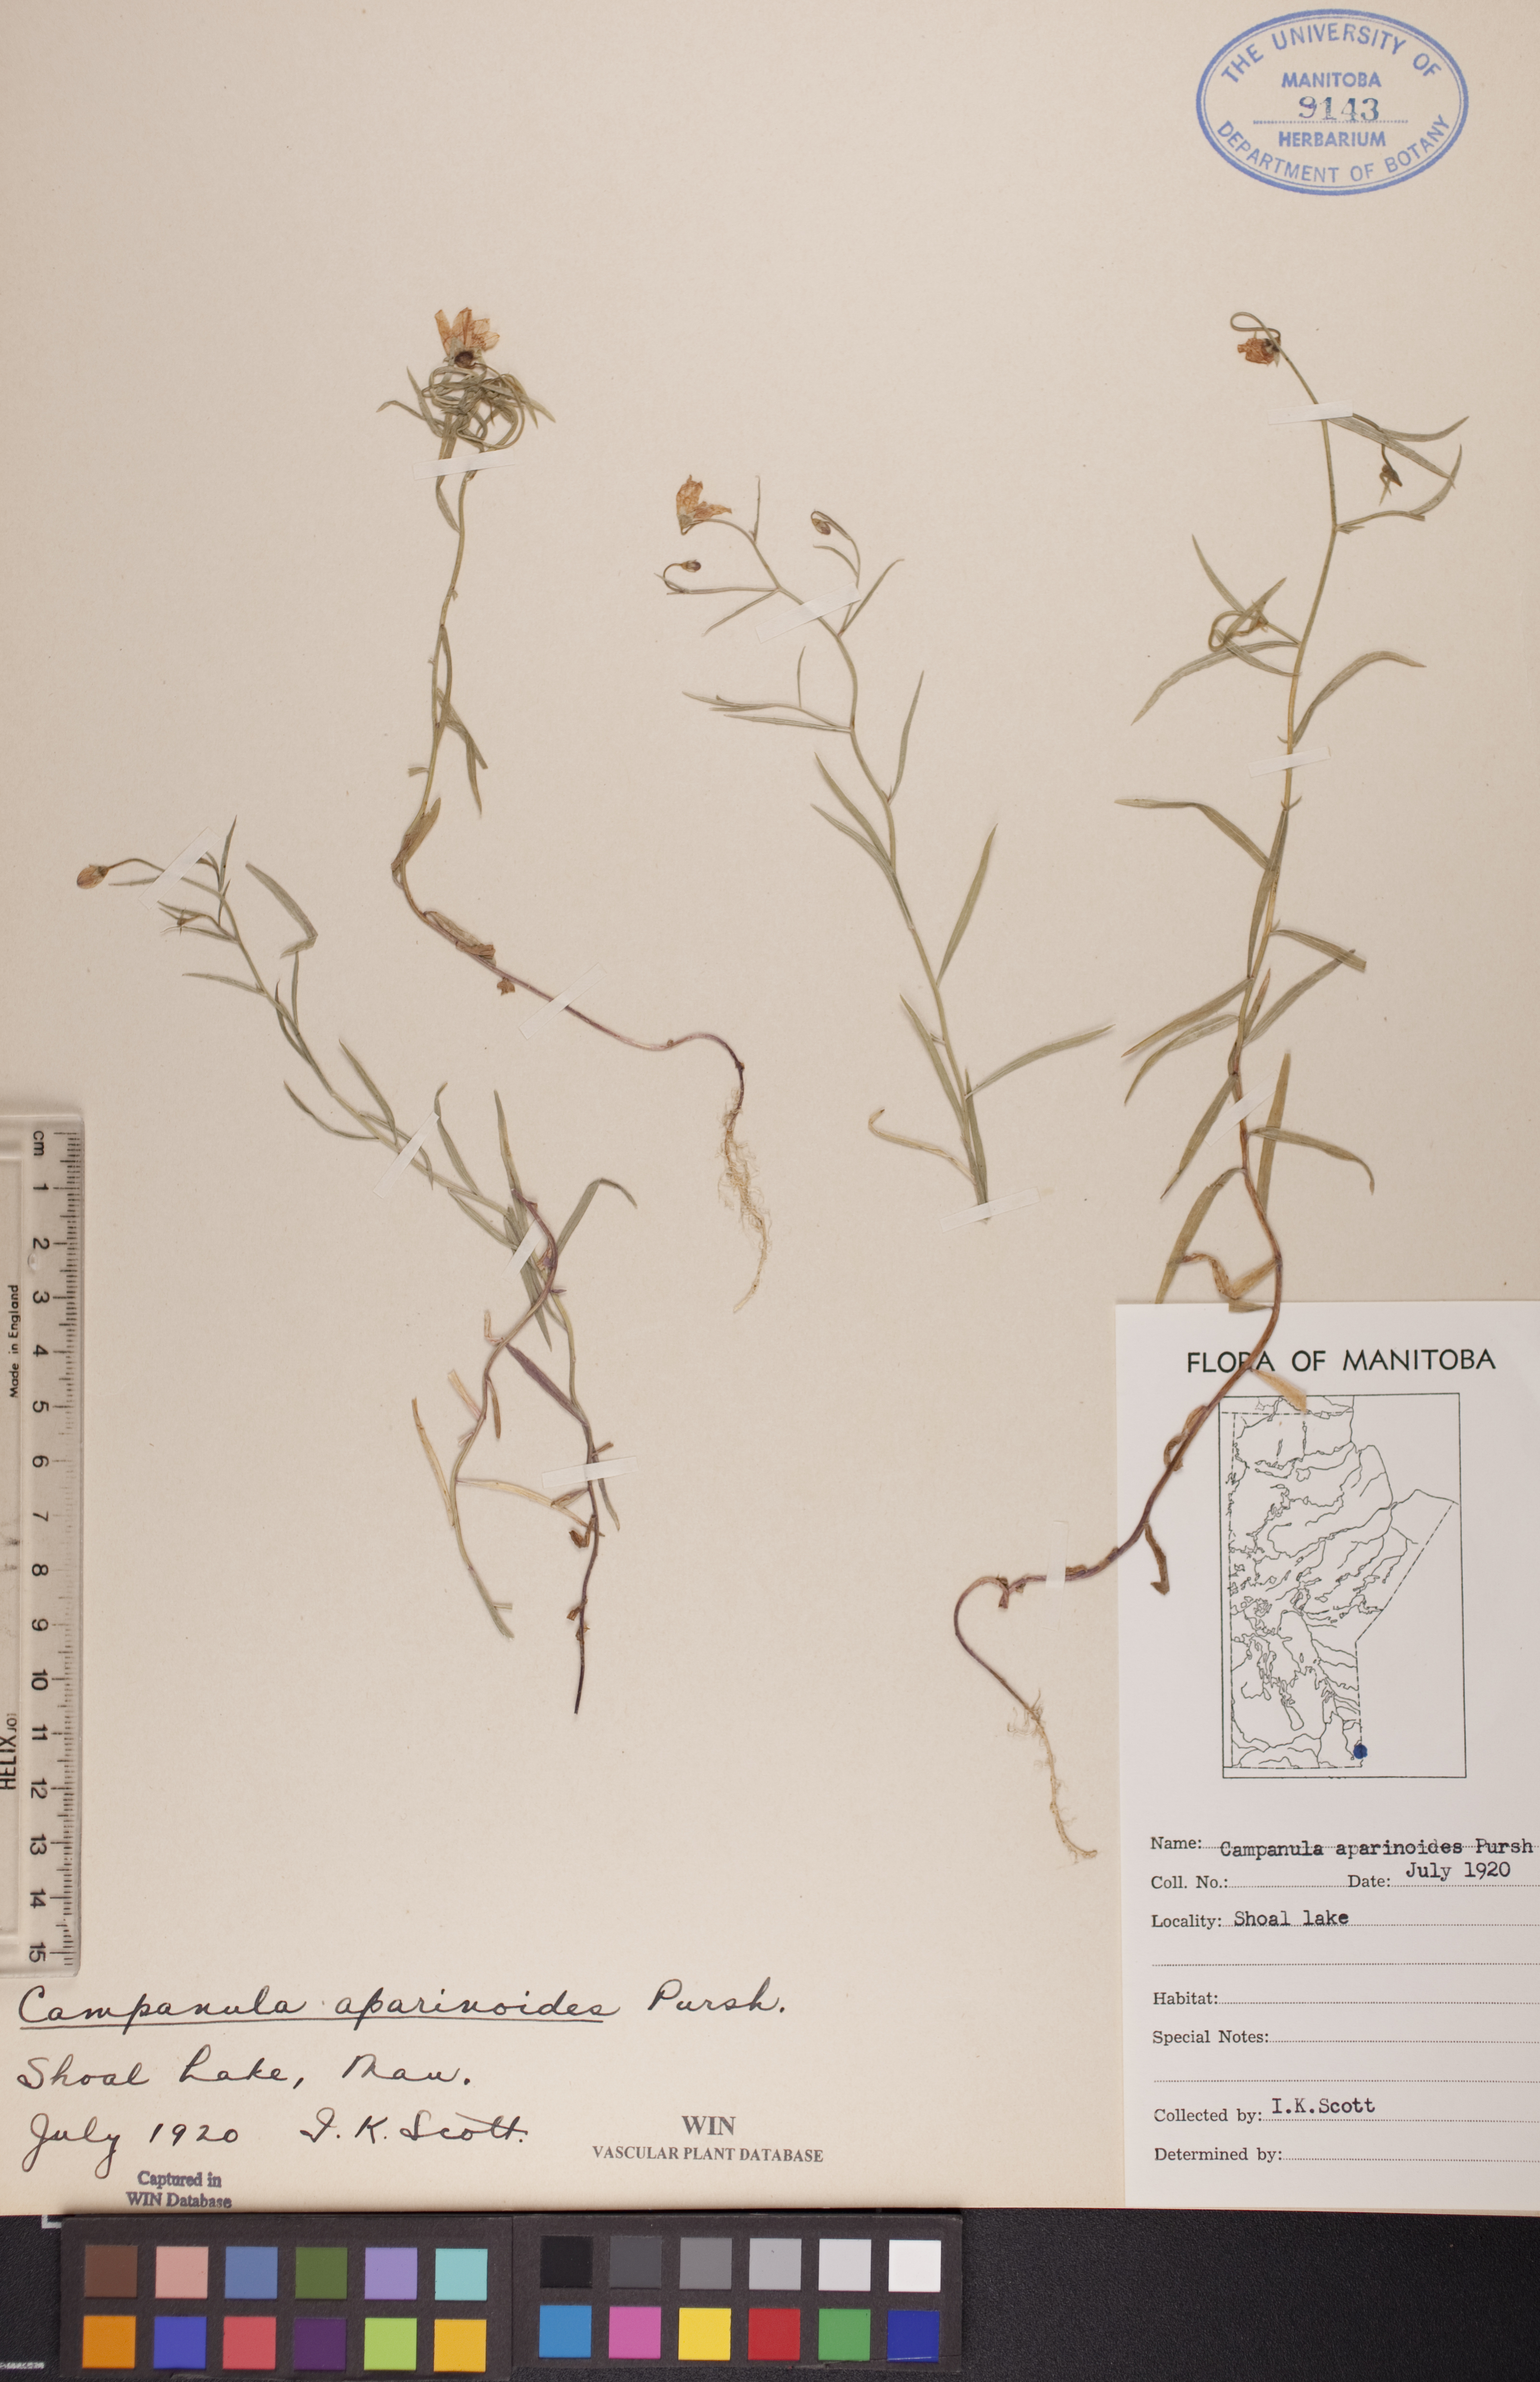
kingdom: Plantae
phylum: Tracheophyta
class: Magnoliopsida
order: Asterales
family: Campanulaceae
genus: Palustricodon
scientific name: Palustricodon aparinoides
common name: Bedstraw bellflower
